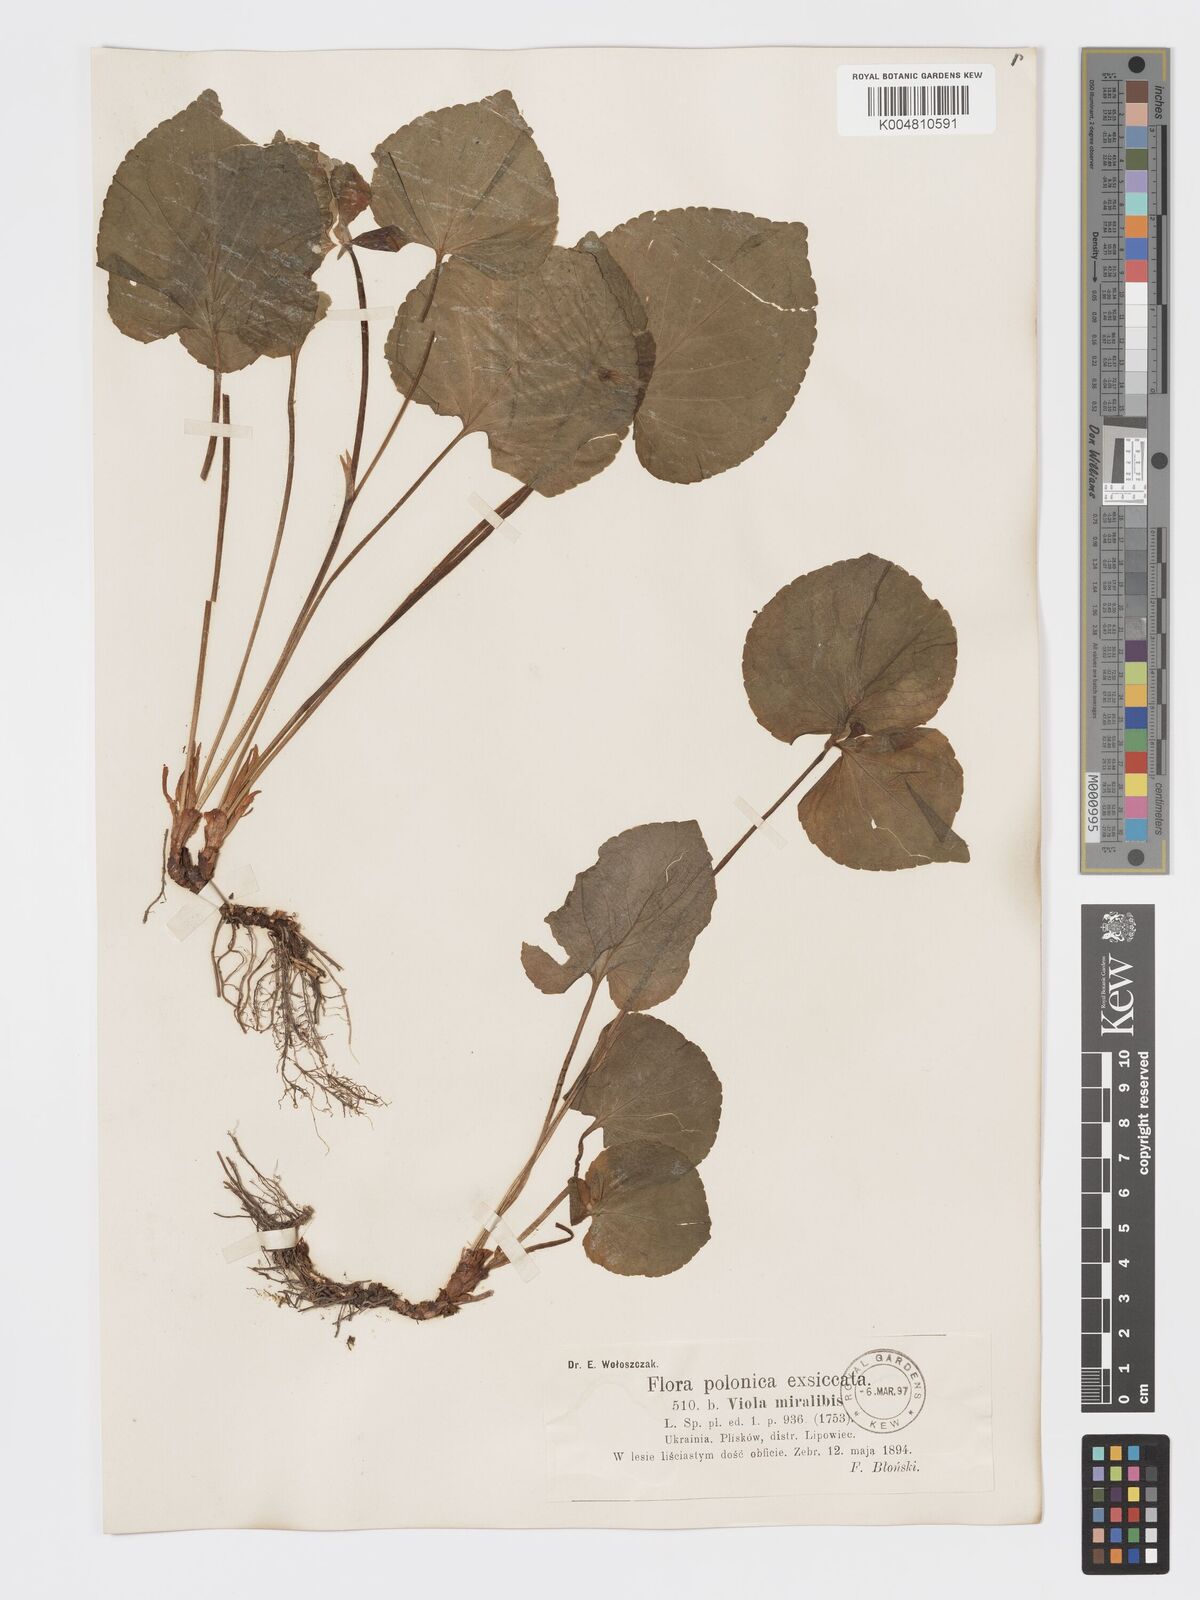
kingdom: Plantae
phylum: Tracheophyta
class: Magnoliopsida
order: Malpighiales
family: Violaceae
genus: Viola
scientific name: Viola mirabilis
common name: Wonder violet
